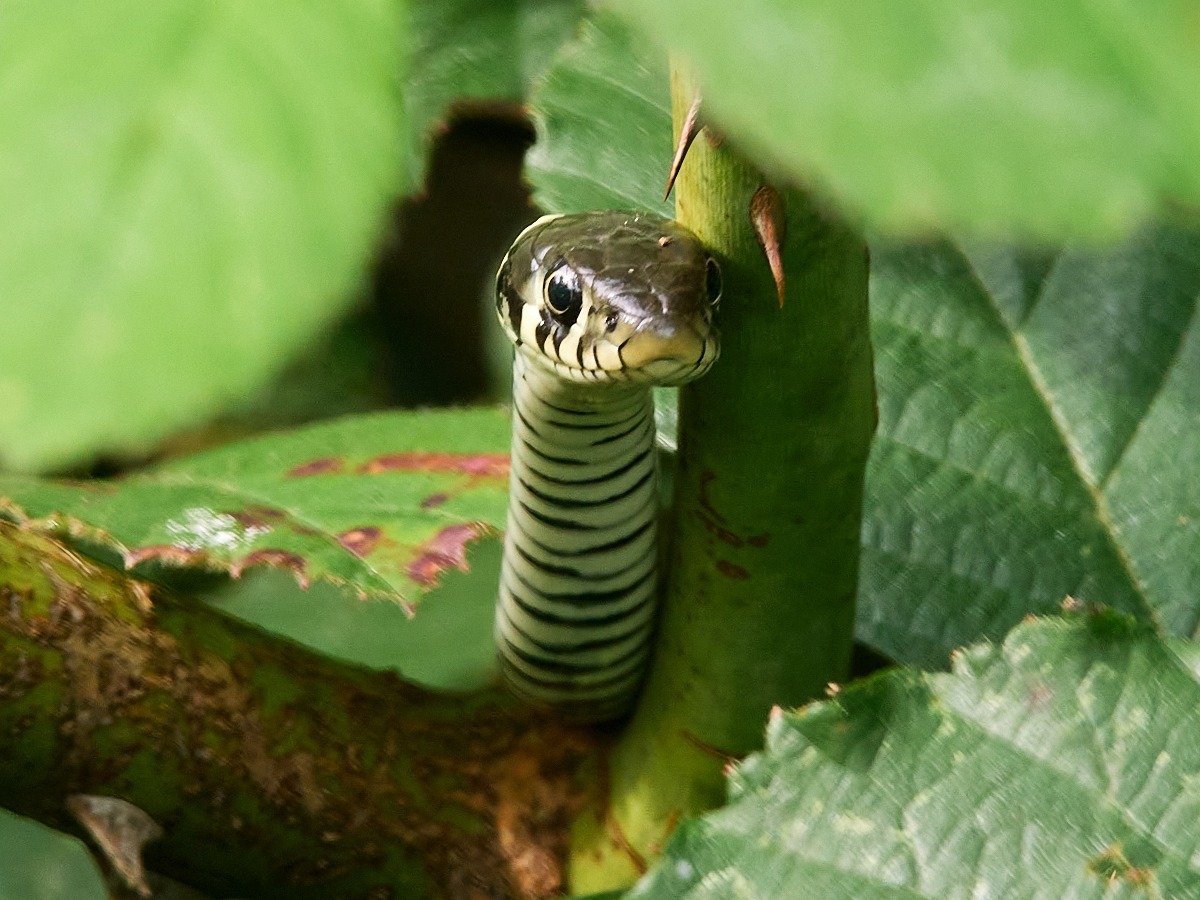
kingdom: Animalia
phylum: Chordata
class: Squamata
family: Colubridae
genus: Natrix
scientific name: Natrix natrix
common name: Snog
